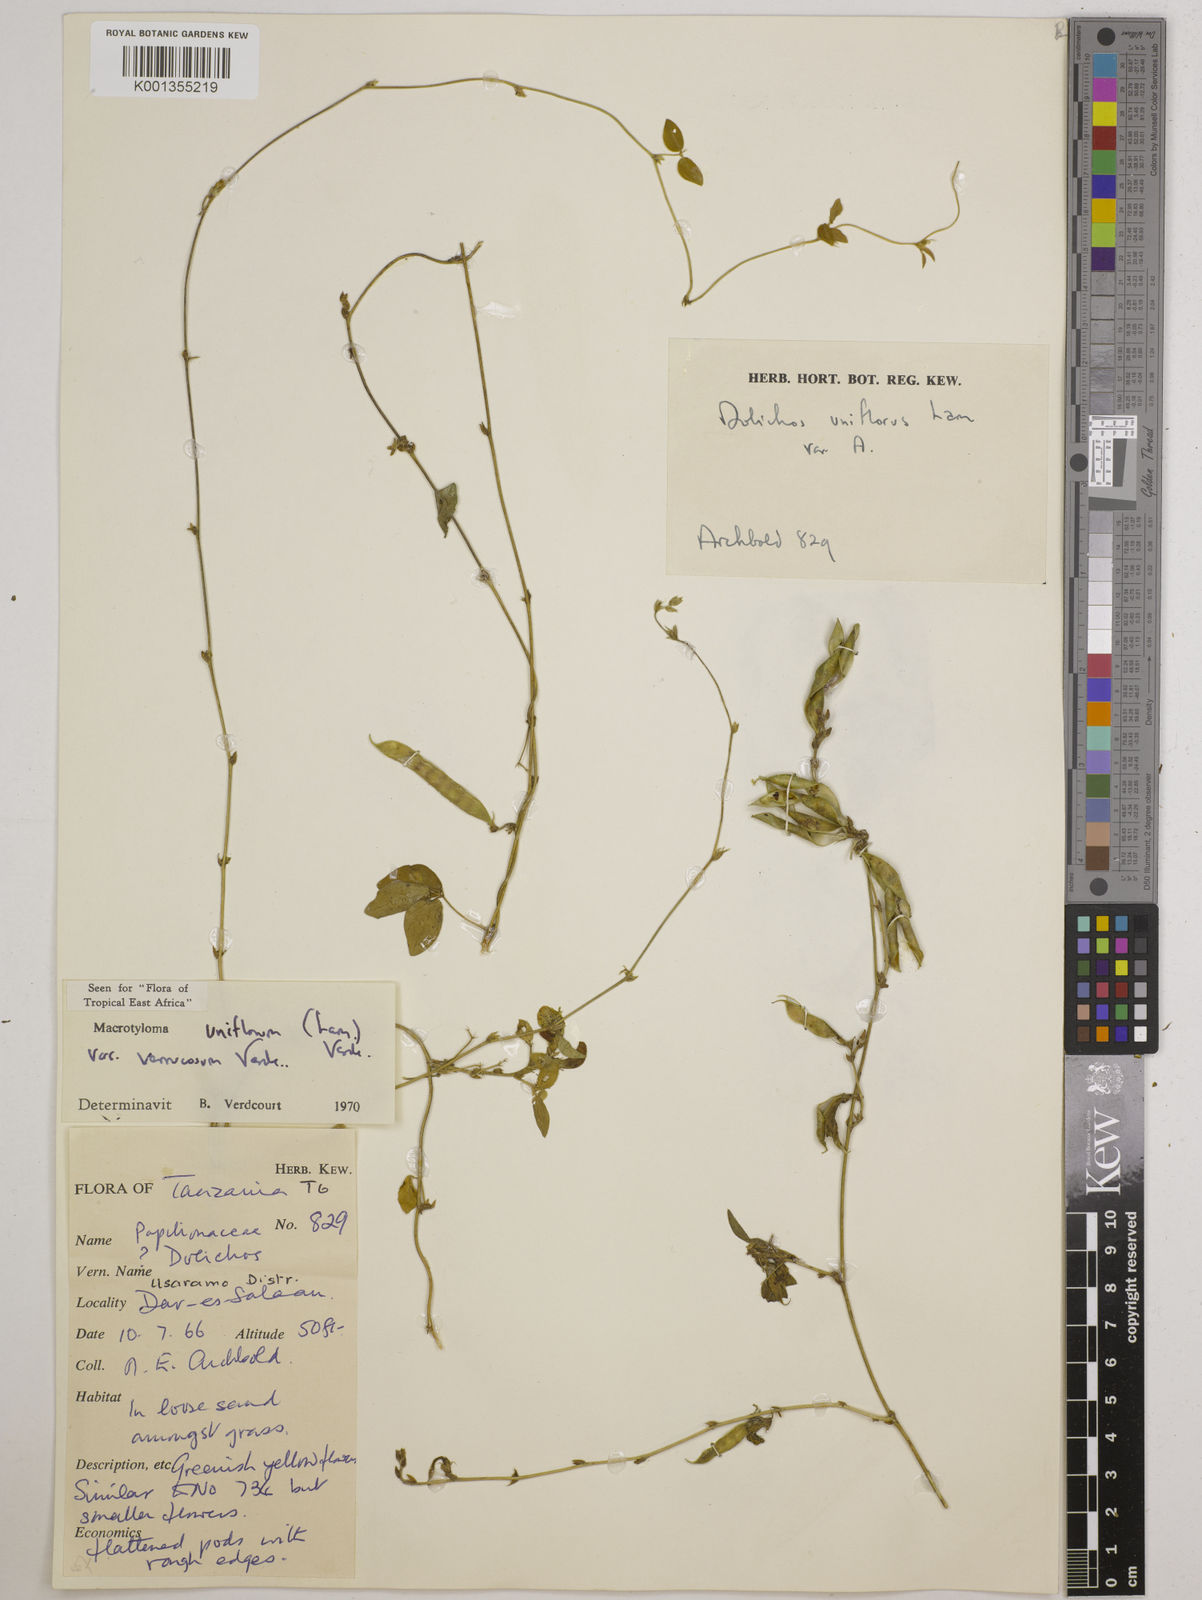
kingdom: Plantae
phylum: Tracheophyta
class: Magnoliopsida
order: Fabales
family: Fabaceae
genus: Macrotyloma
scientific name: Macrotyloma
